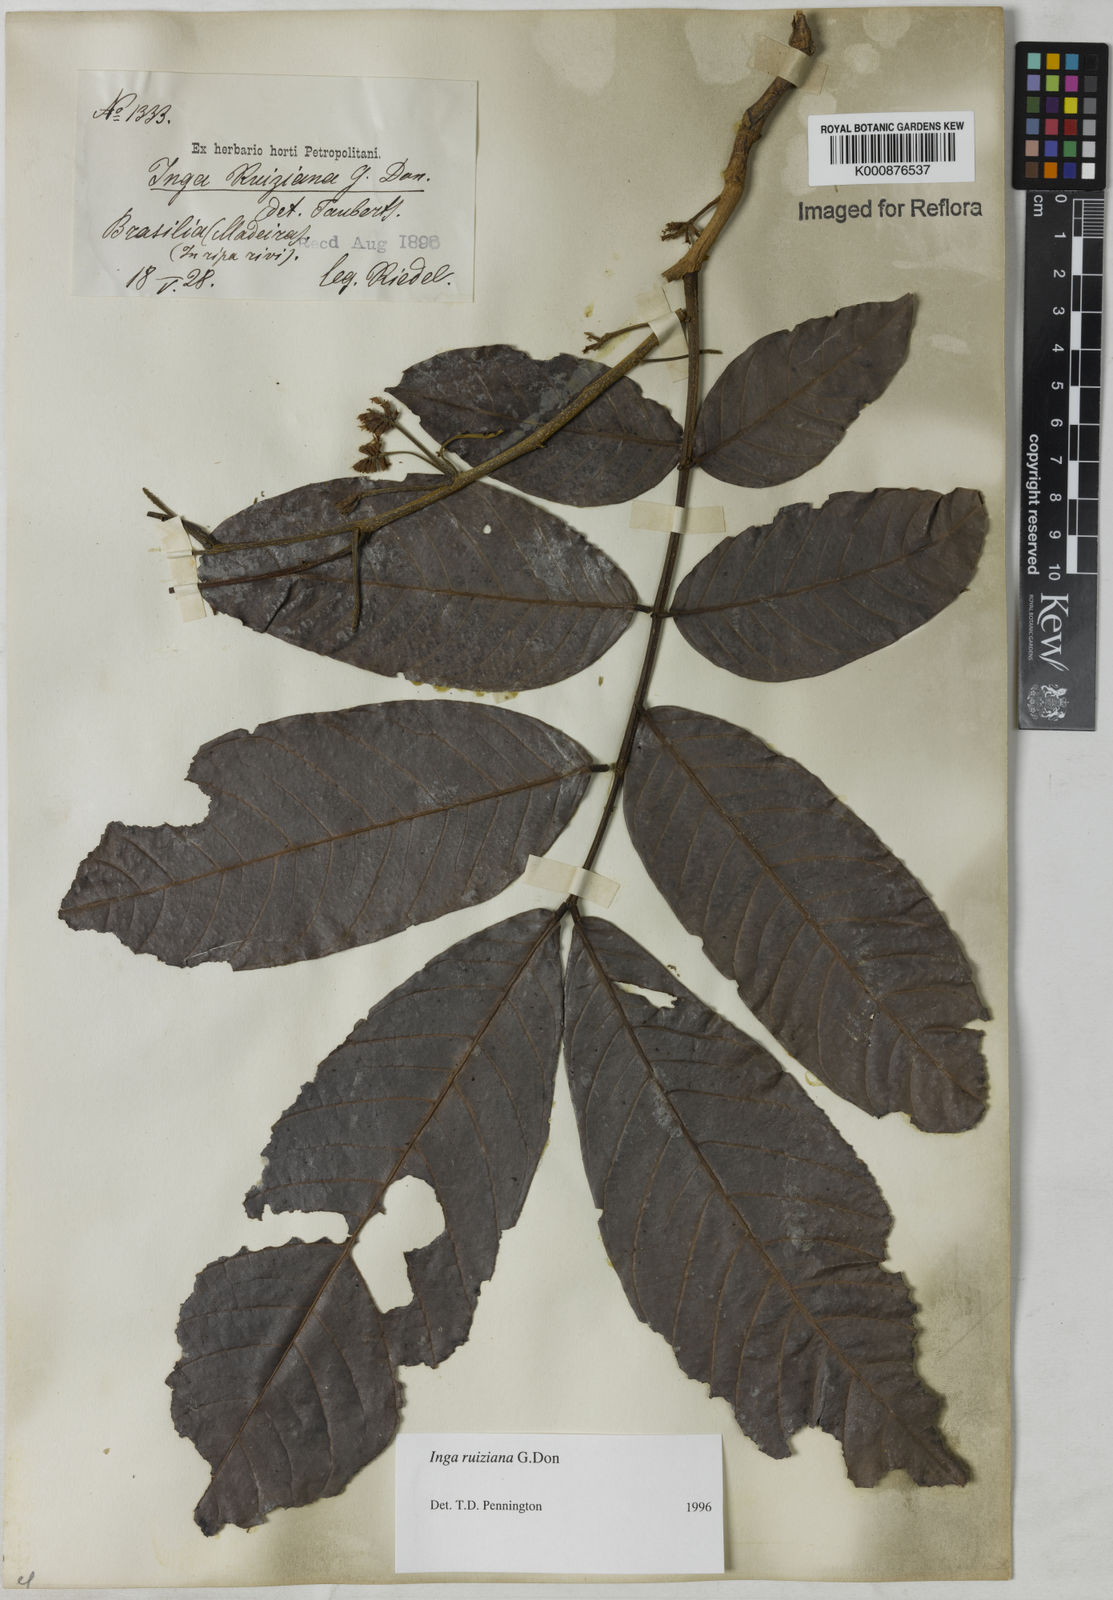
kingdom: Plantae
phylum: Tracheophyta
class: Magnoliopsida
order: Fabales
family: Fabaceae
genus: Inga
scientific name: Inga ruiziana
